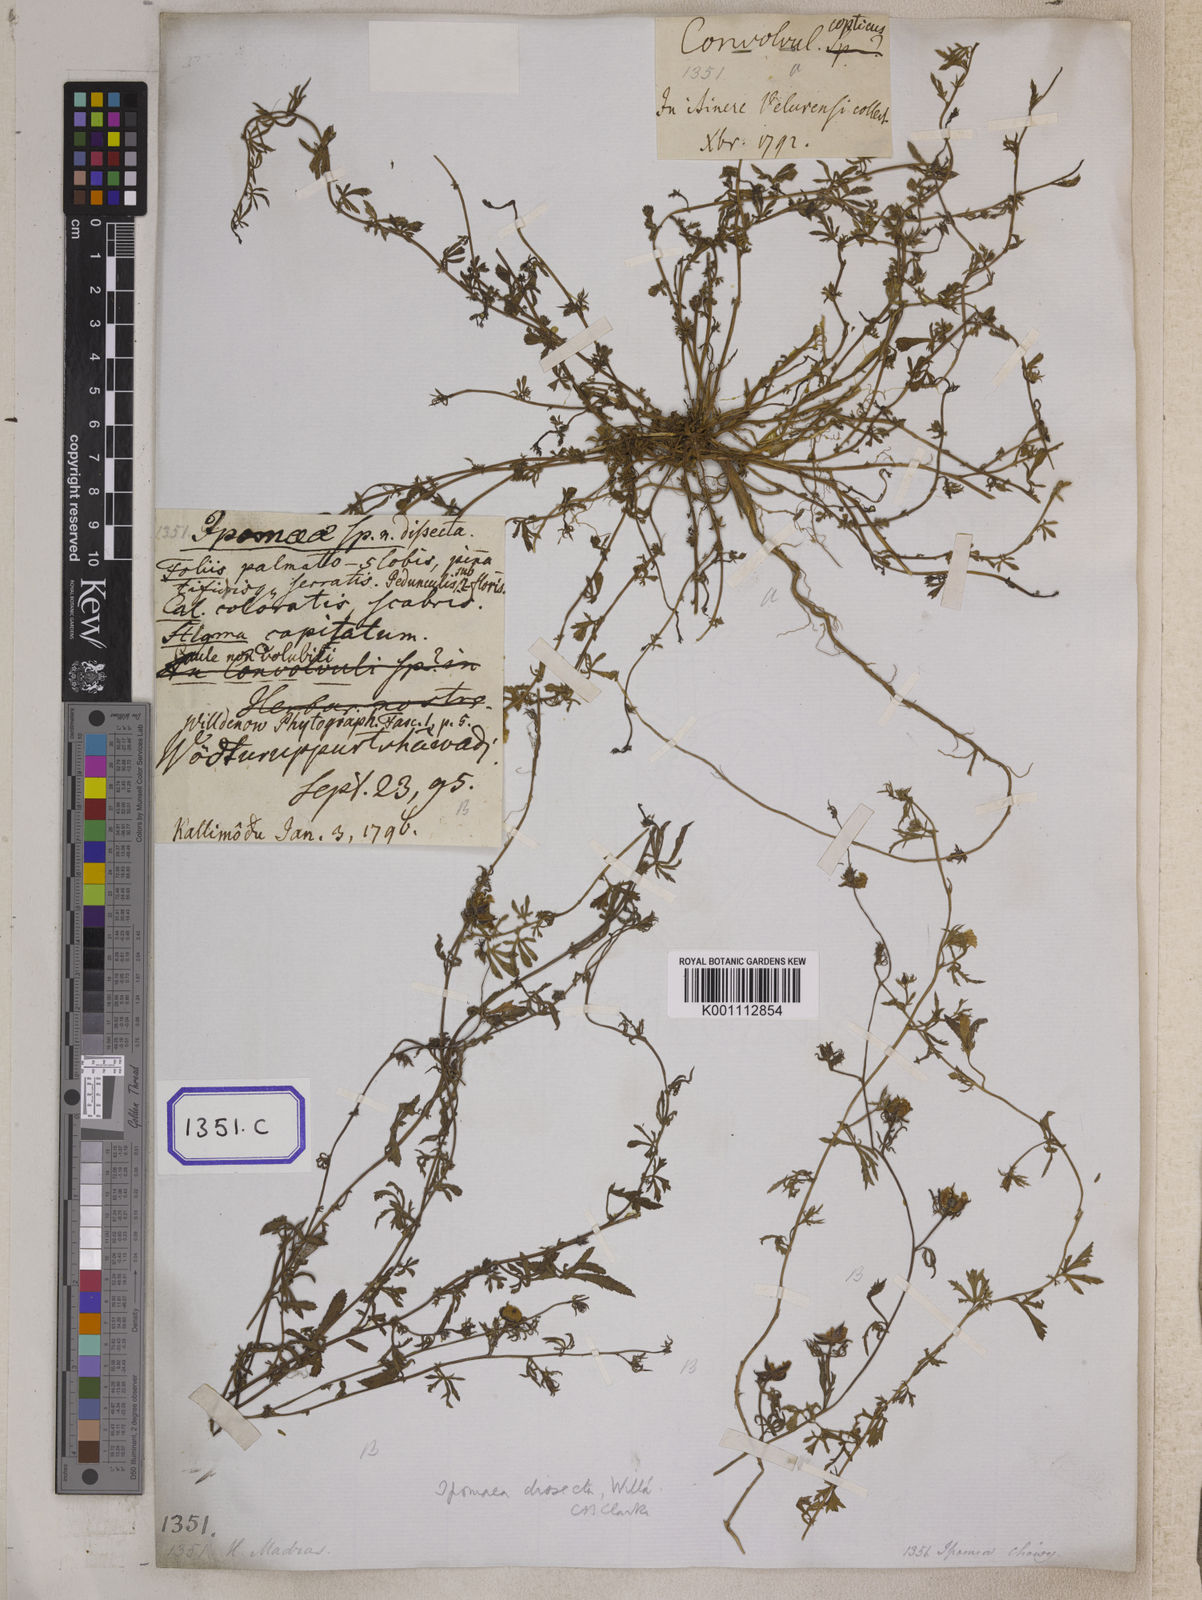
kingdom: Plantae
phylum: Tracheophyta
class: Magnoliopsida
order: Solanales
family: Convolvulaceae
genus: Ipomoea
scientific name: Ipomoea coptica
